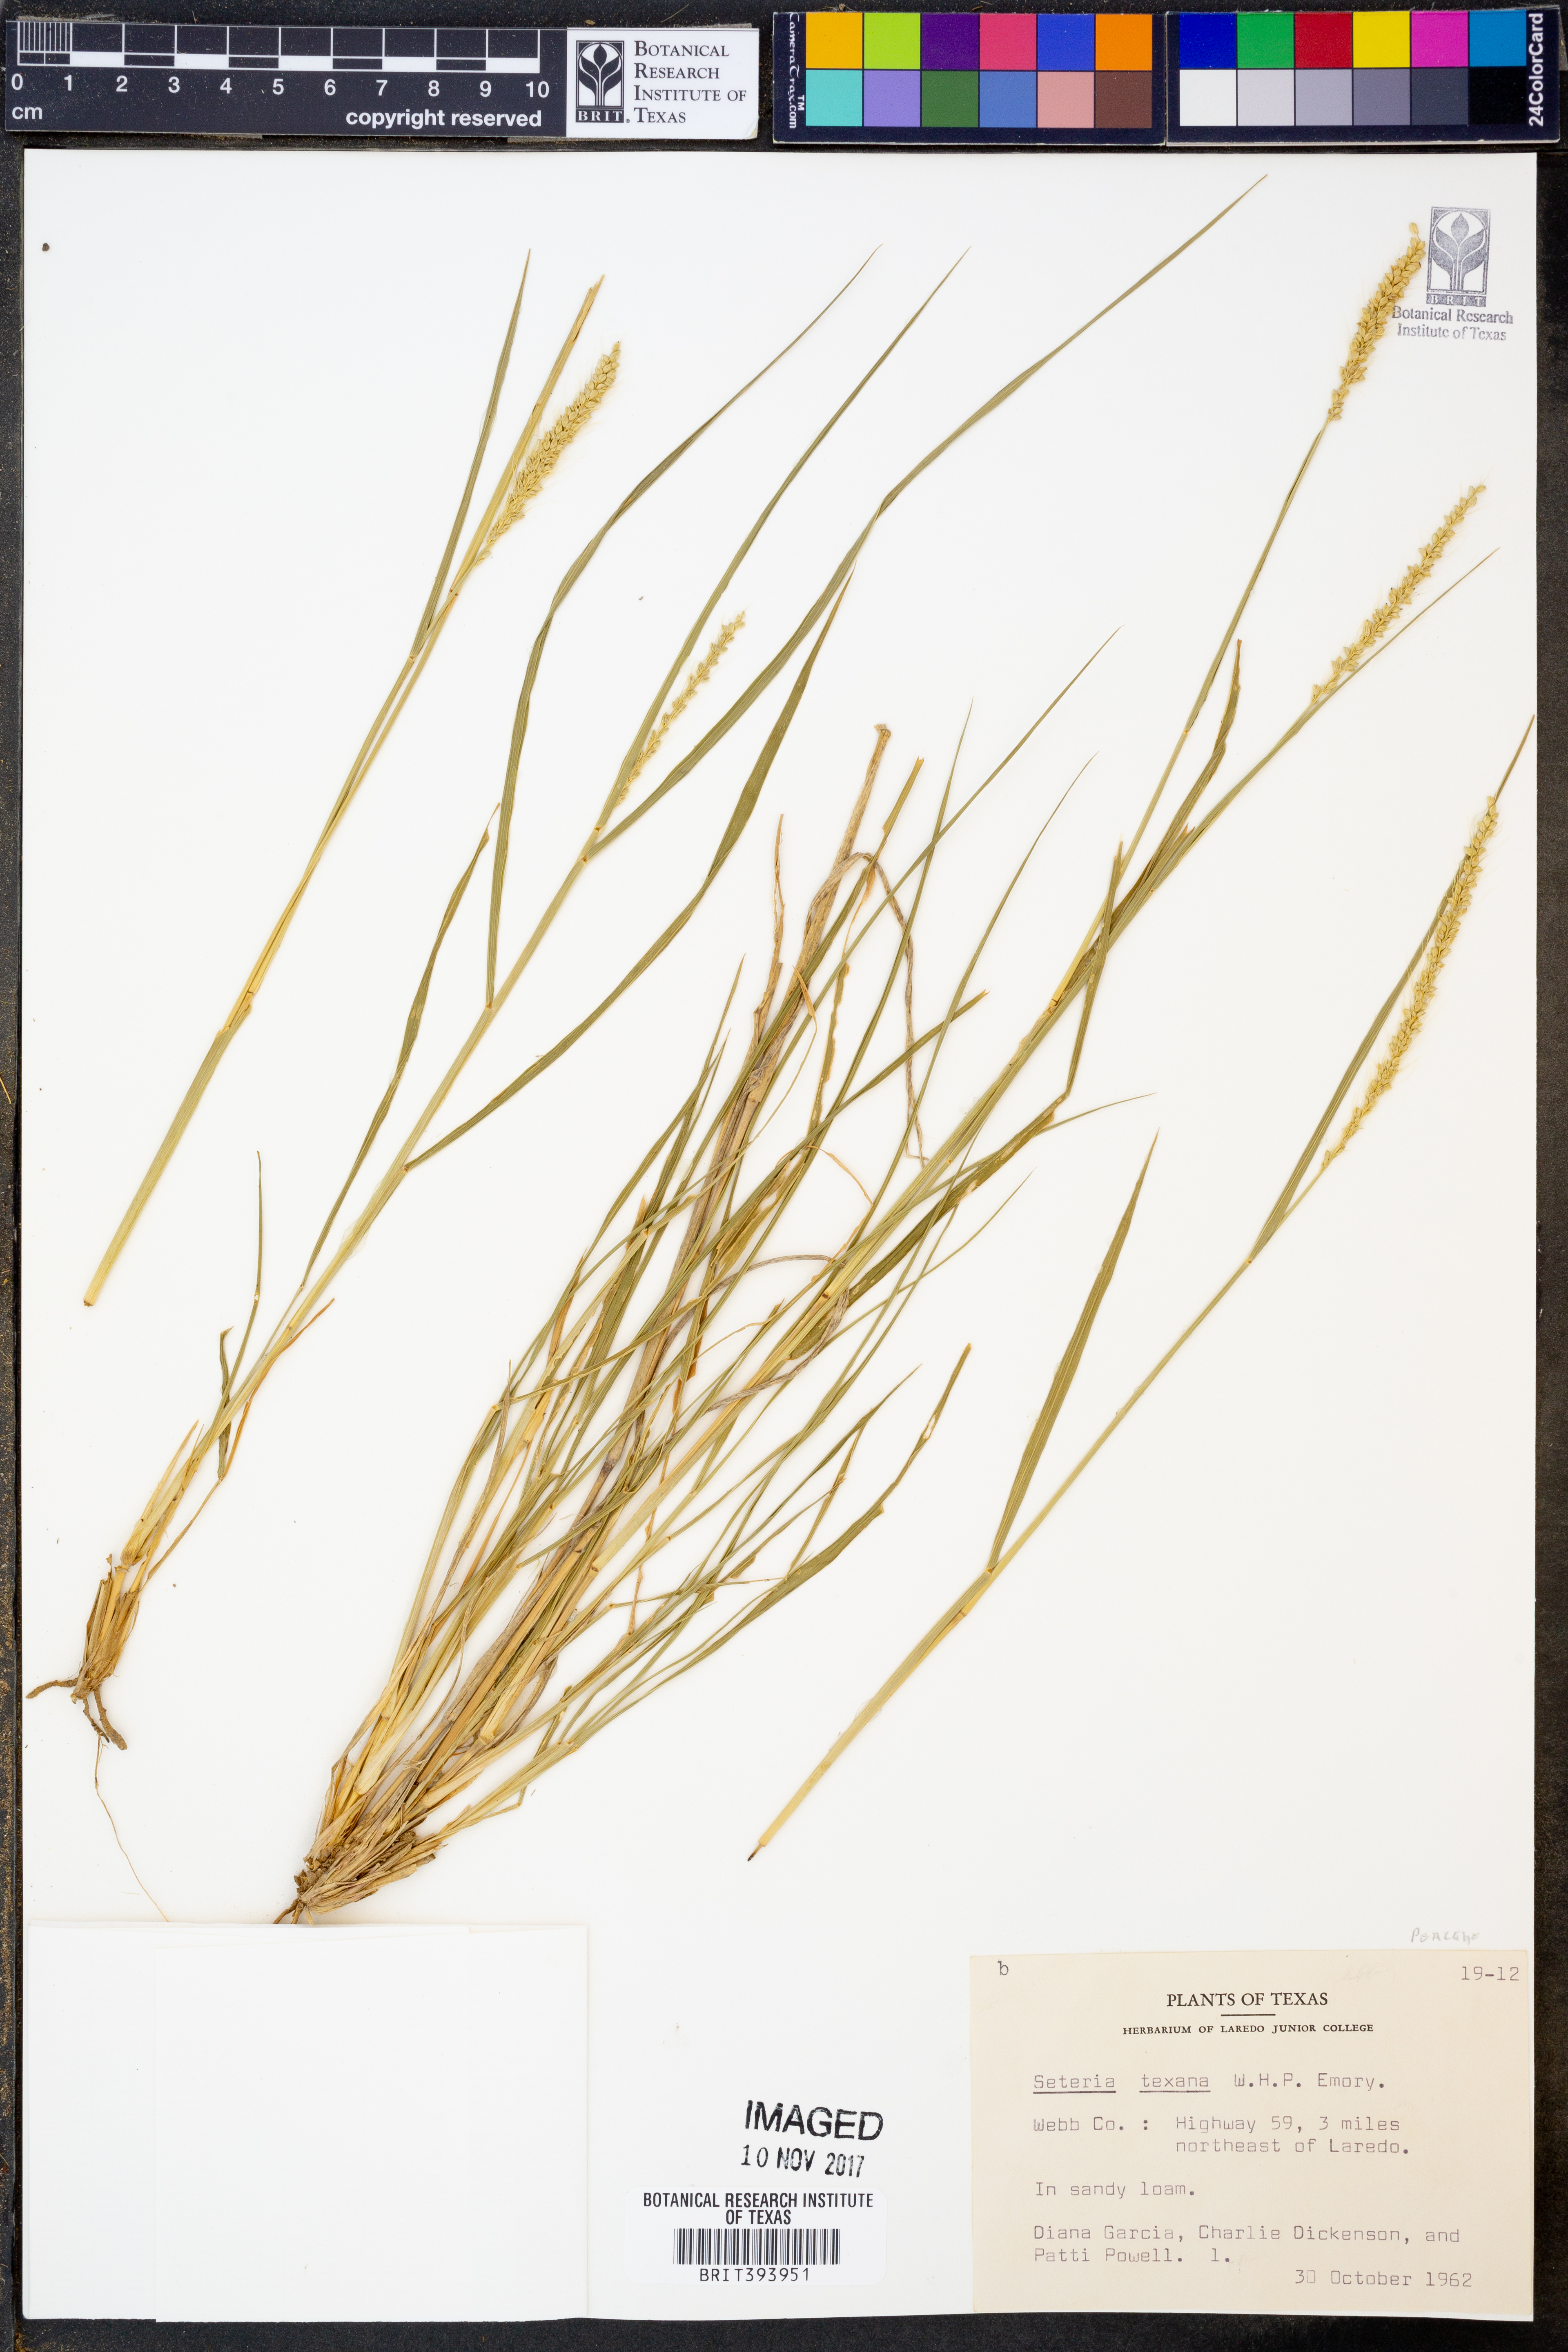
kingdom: Plantae
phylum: Tracheophyta
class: Liliopsida
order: Poales
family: Poaceae
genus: Setaria
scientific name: Setaria texana
